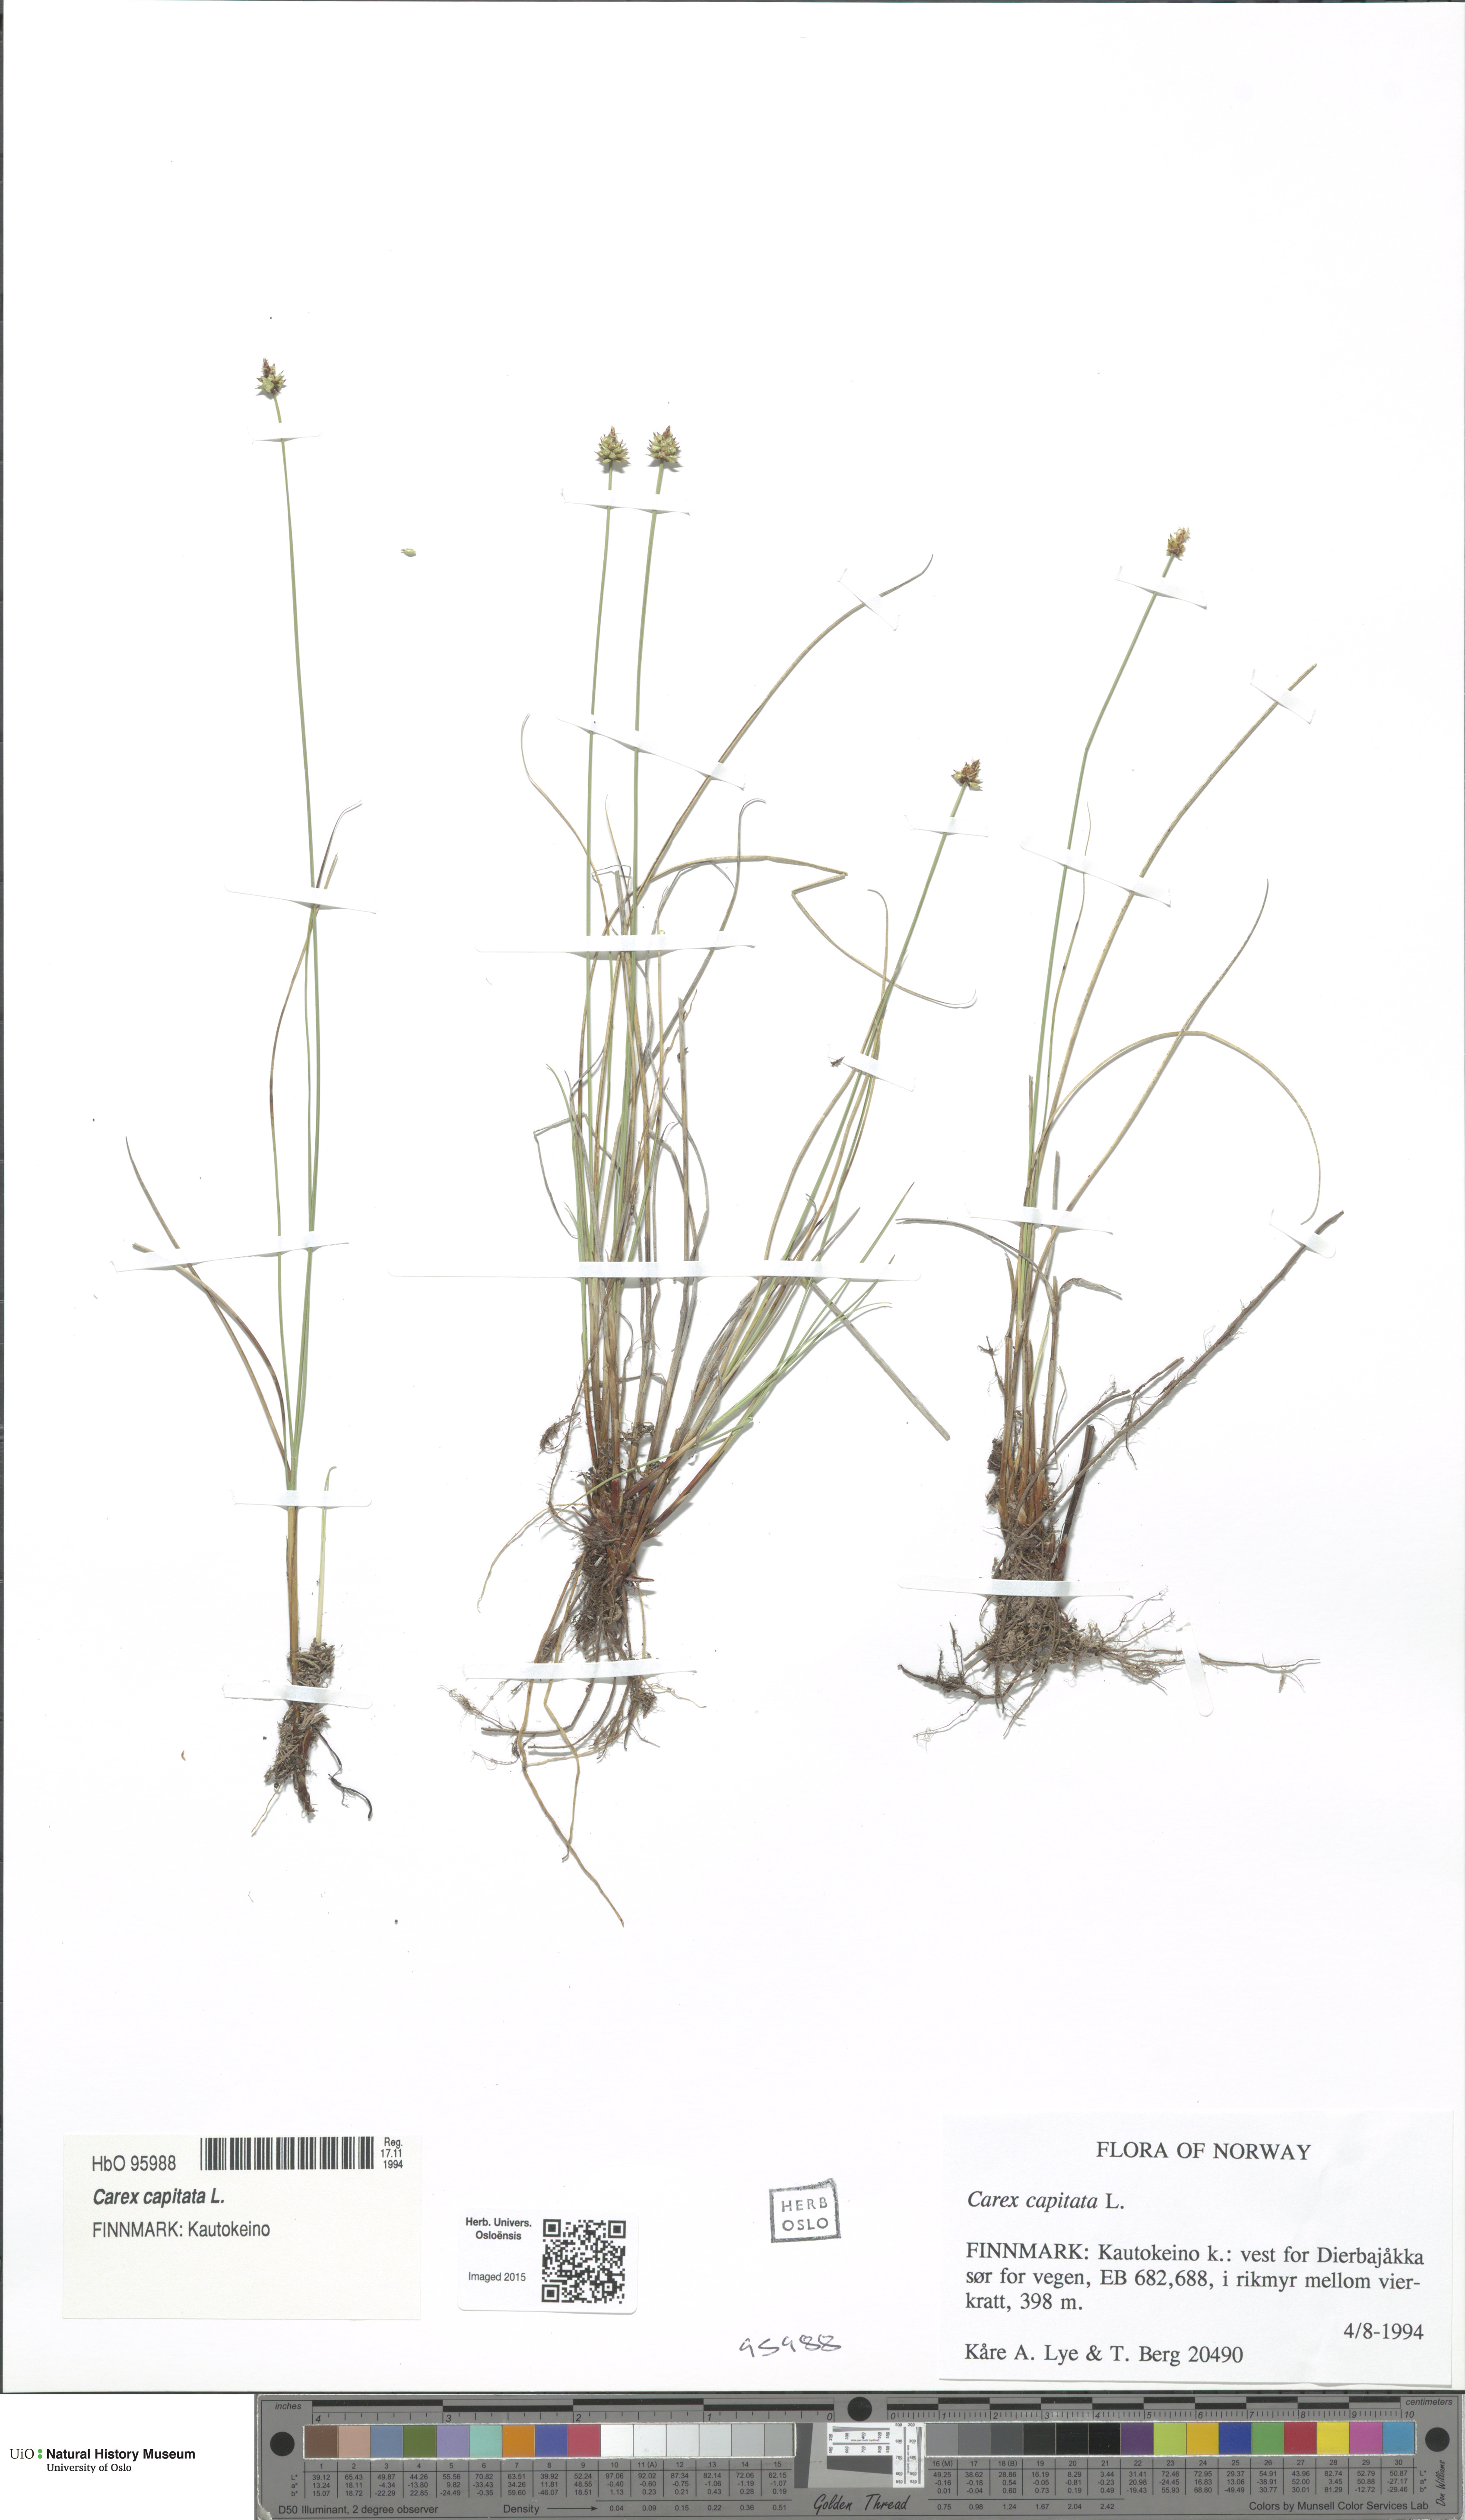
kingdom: Plantae
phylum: Tracheophyta
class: Liliopsida
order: Poales
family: Cyperaceae
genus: Carex
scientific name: Carex capitata
